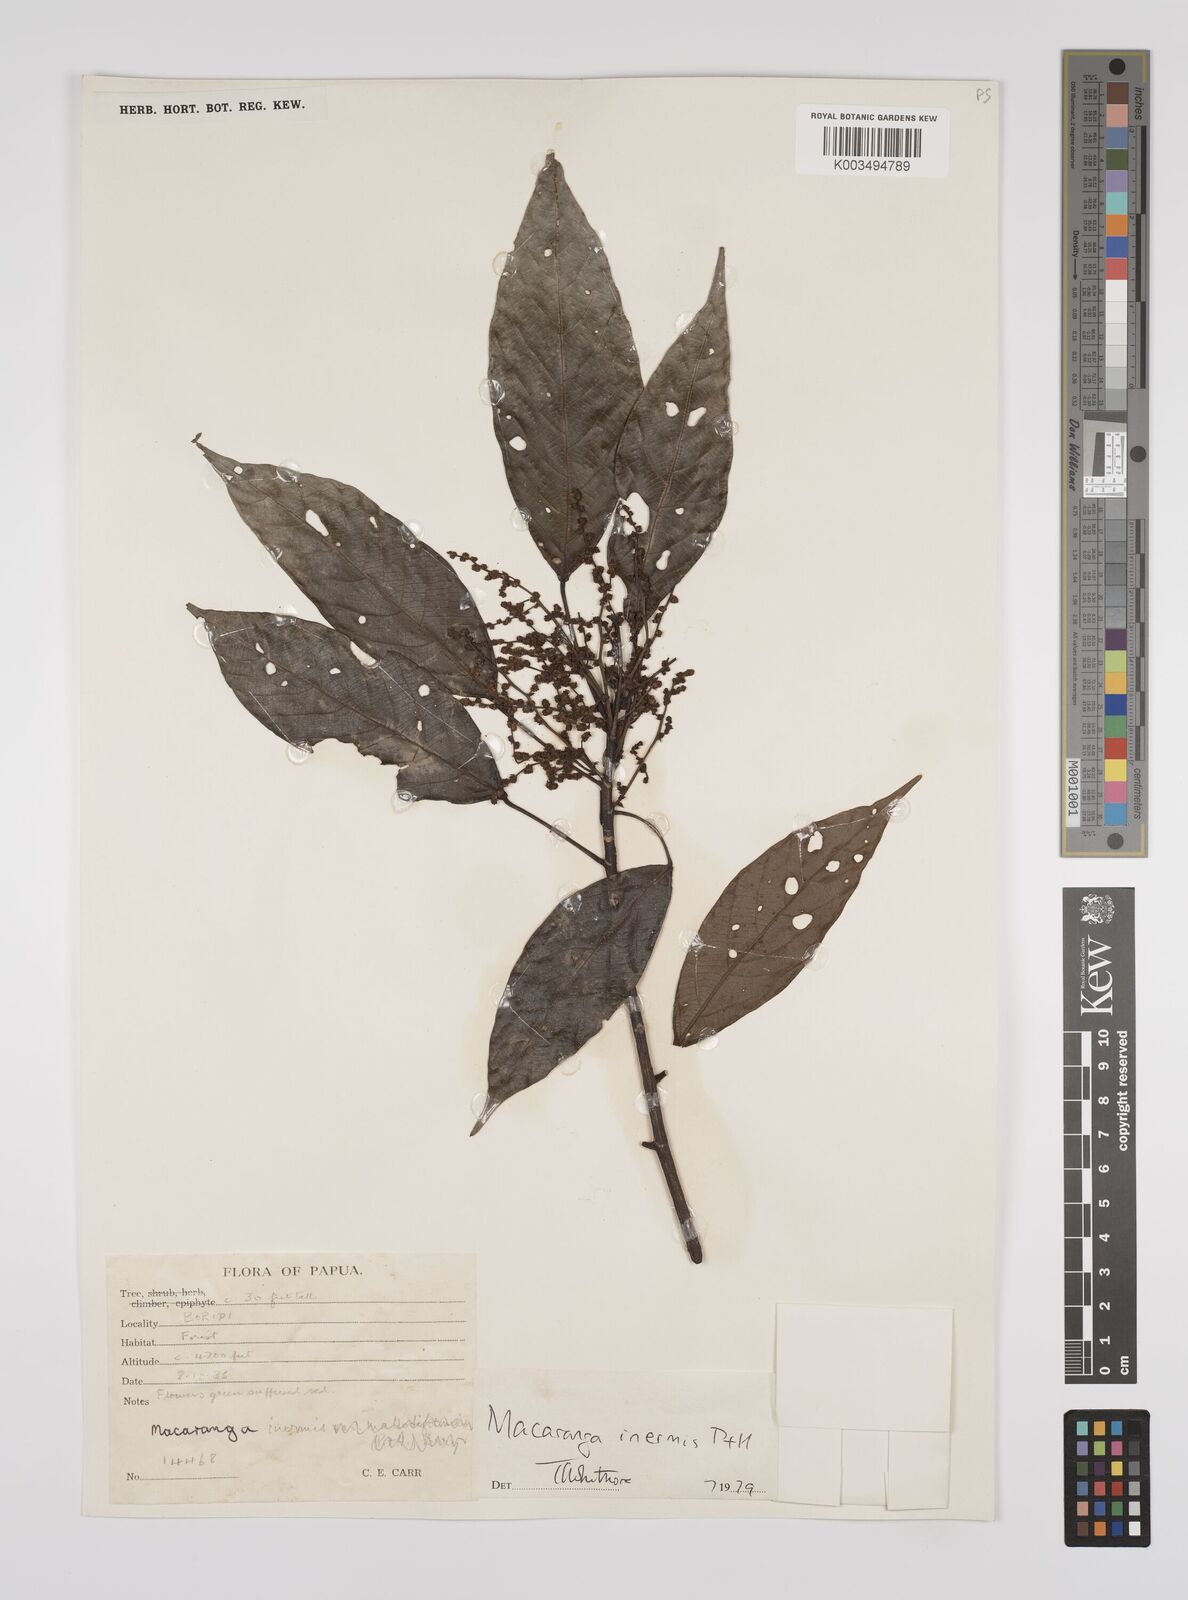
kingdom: Plantae
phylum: Tracheophyta
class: Magnoliopsida
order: Malpighiales
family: Euphorbiaceae
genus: Macaranga
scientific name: Macaranga inermis
